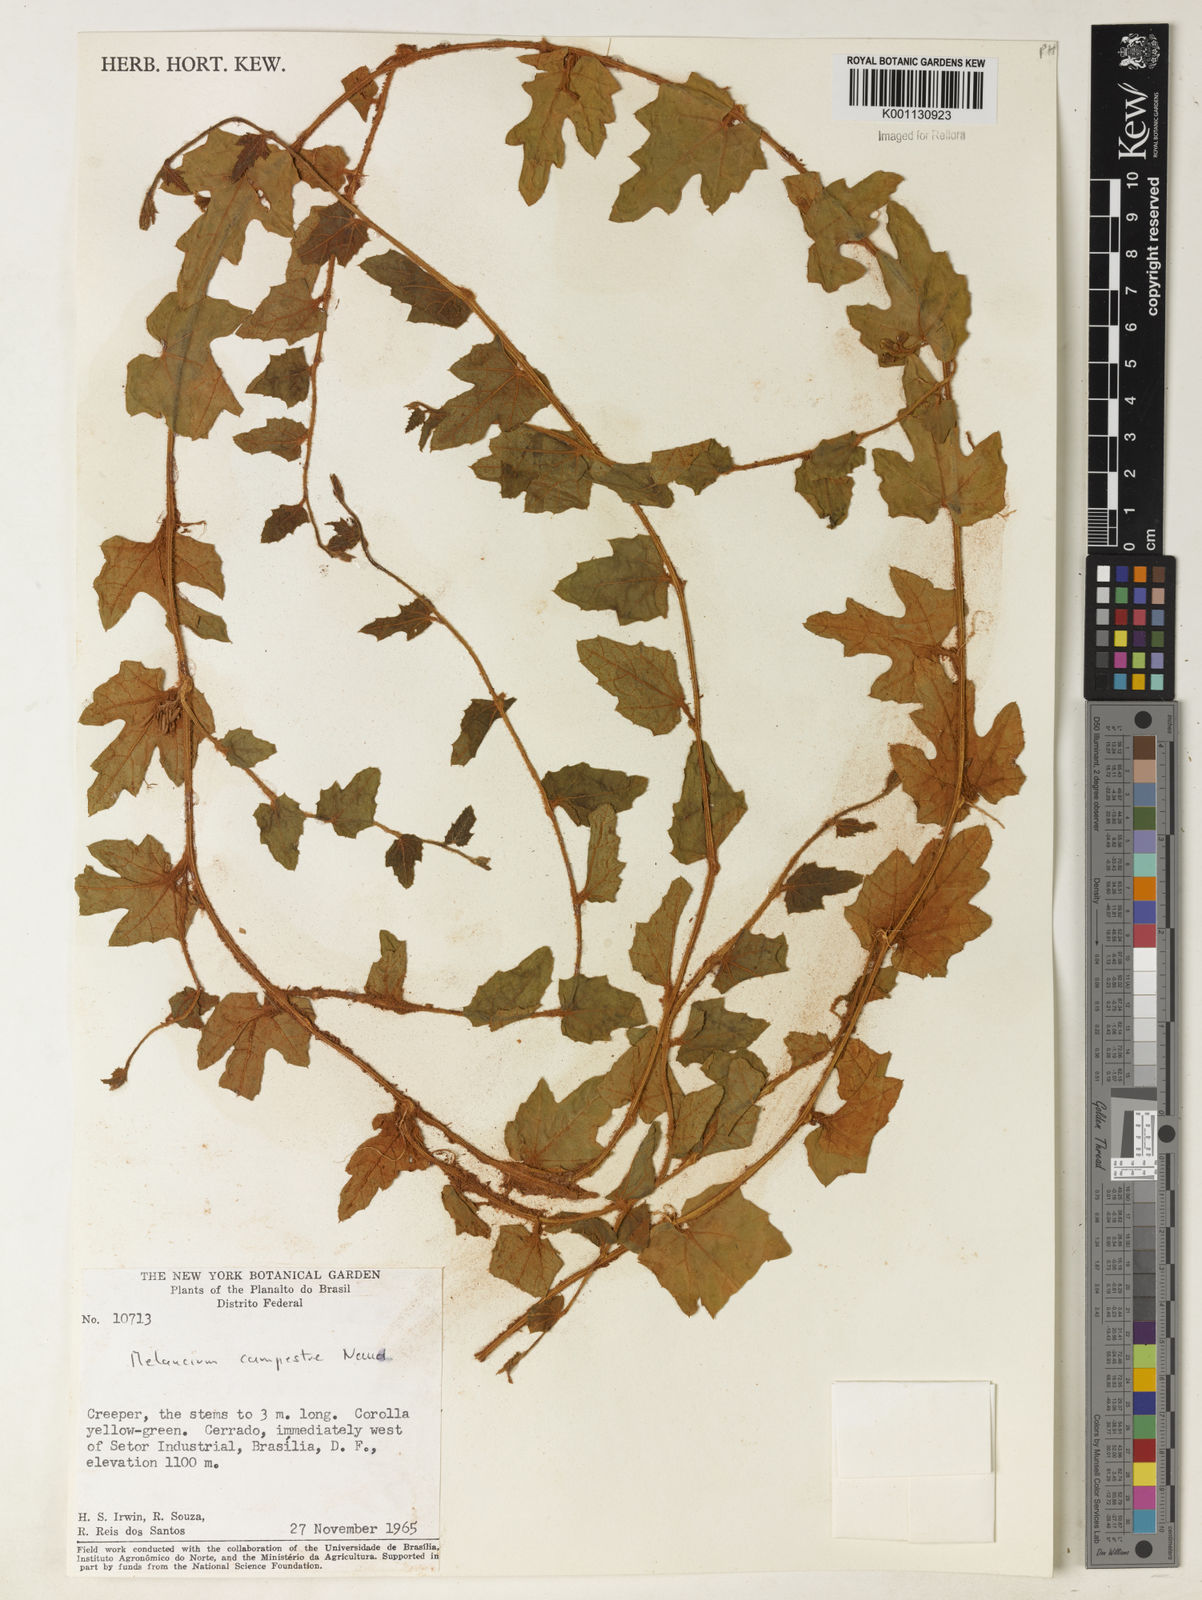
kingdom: Plantae
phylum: Tracheophyta
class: Magnoliopsida
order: Cucurbitales
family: Cucurbitaceae
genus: Melothria
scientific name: Melothria campestris
